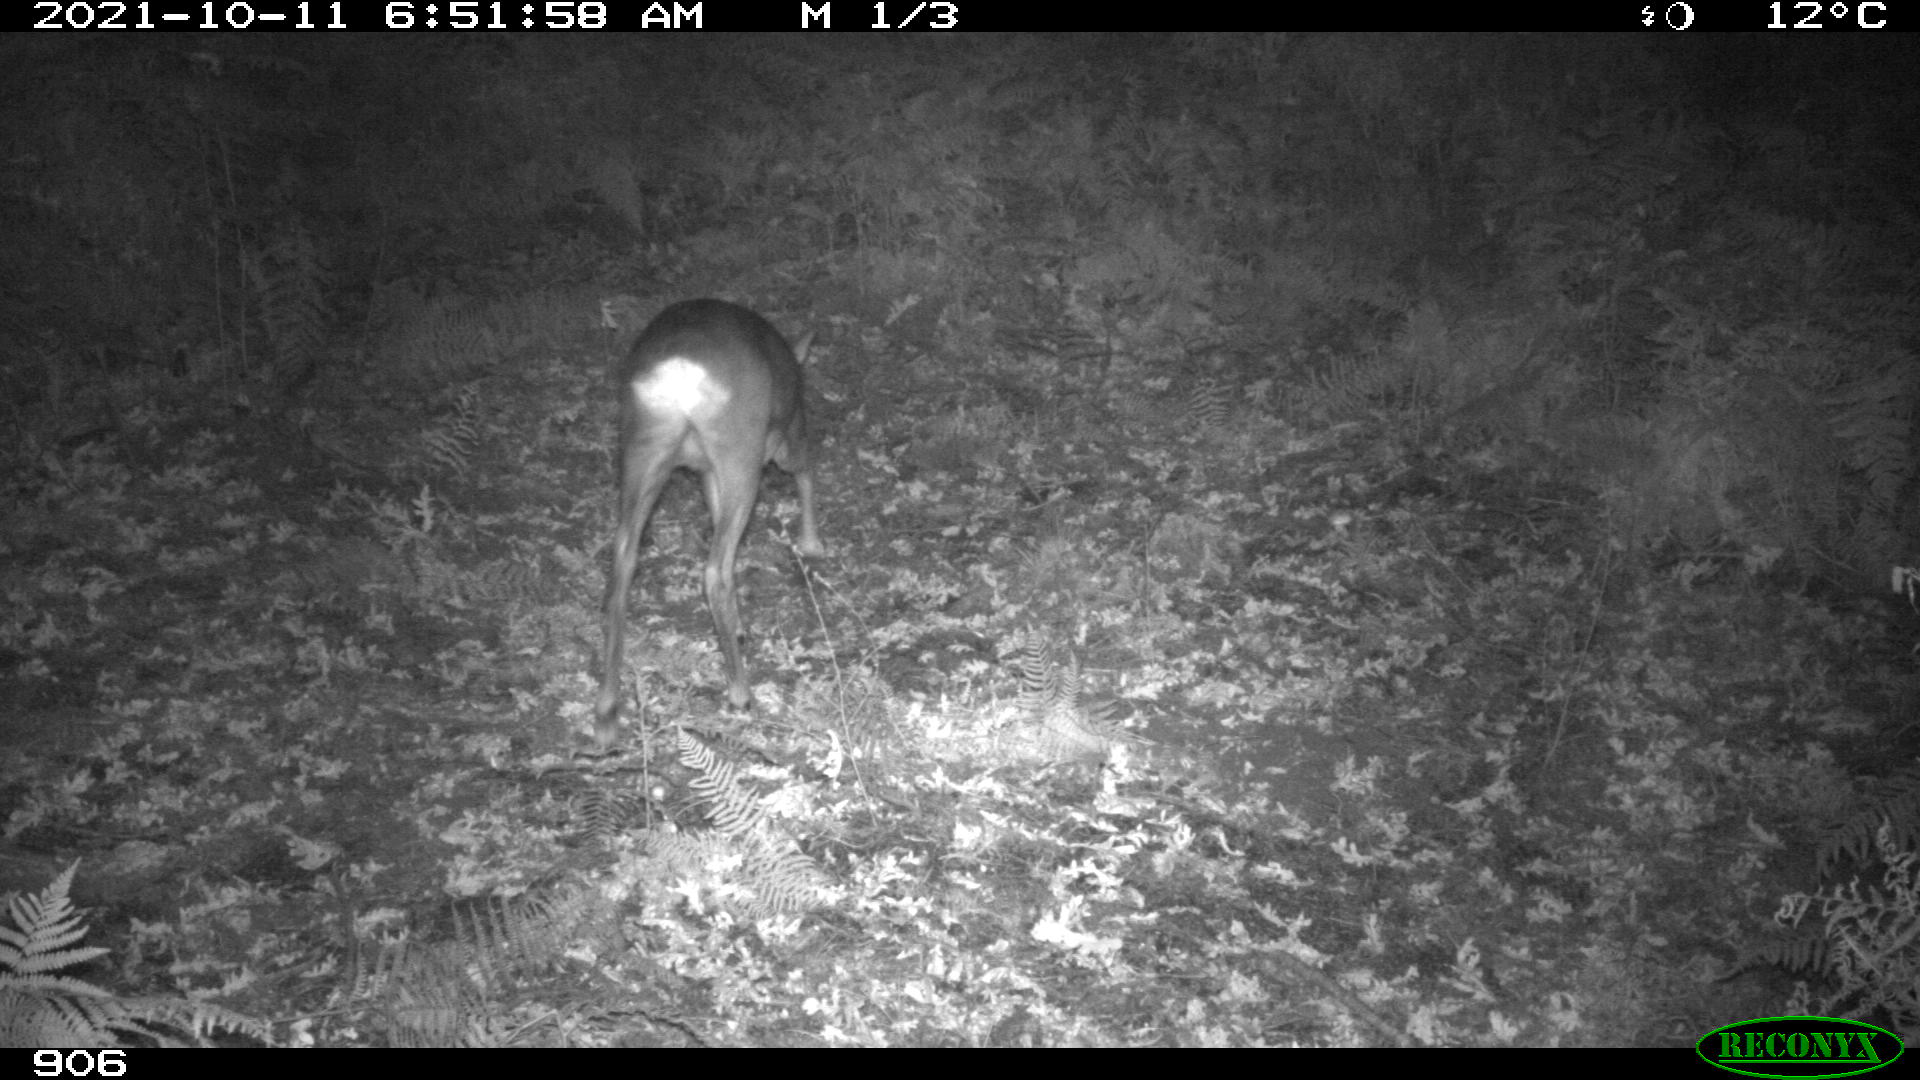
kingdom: Animalia
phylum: Chordata
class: Mammalia
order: Artiodactyla
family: Cervidae
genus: Capreolus
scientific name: Capreolus capreolus
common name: Western roe deer
